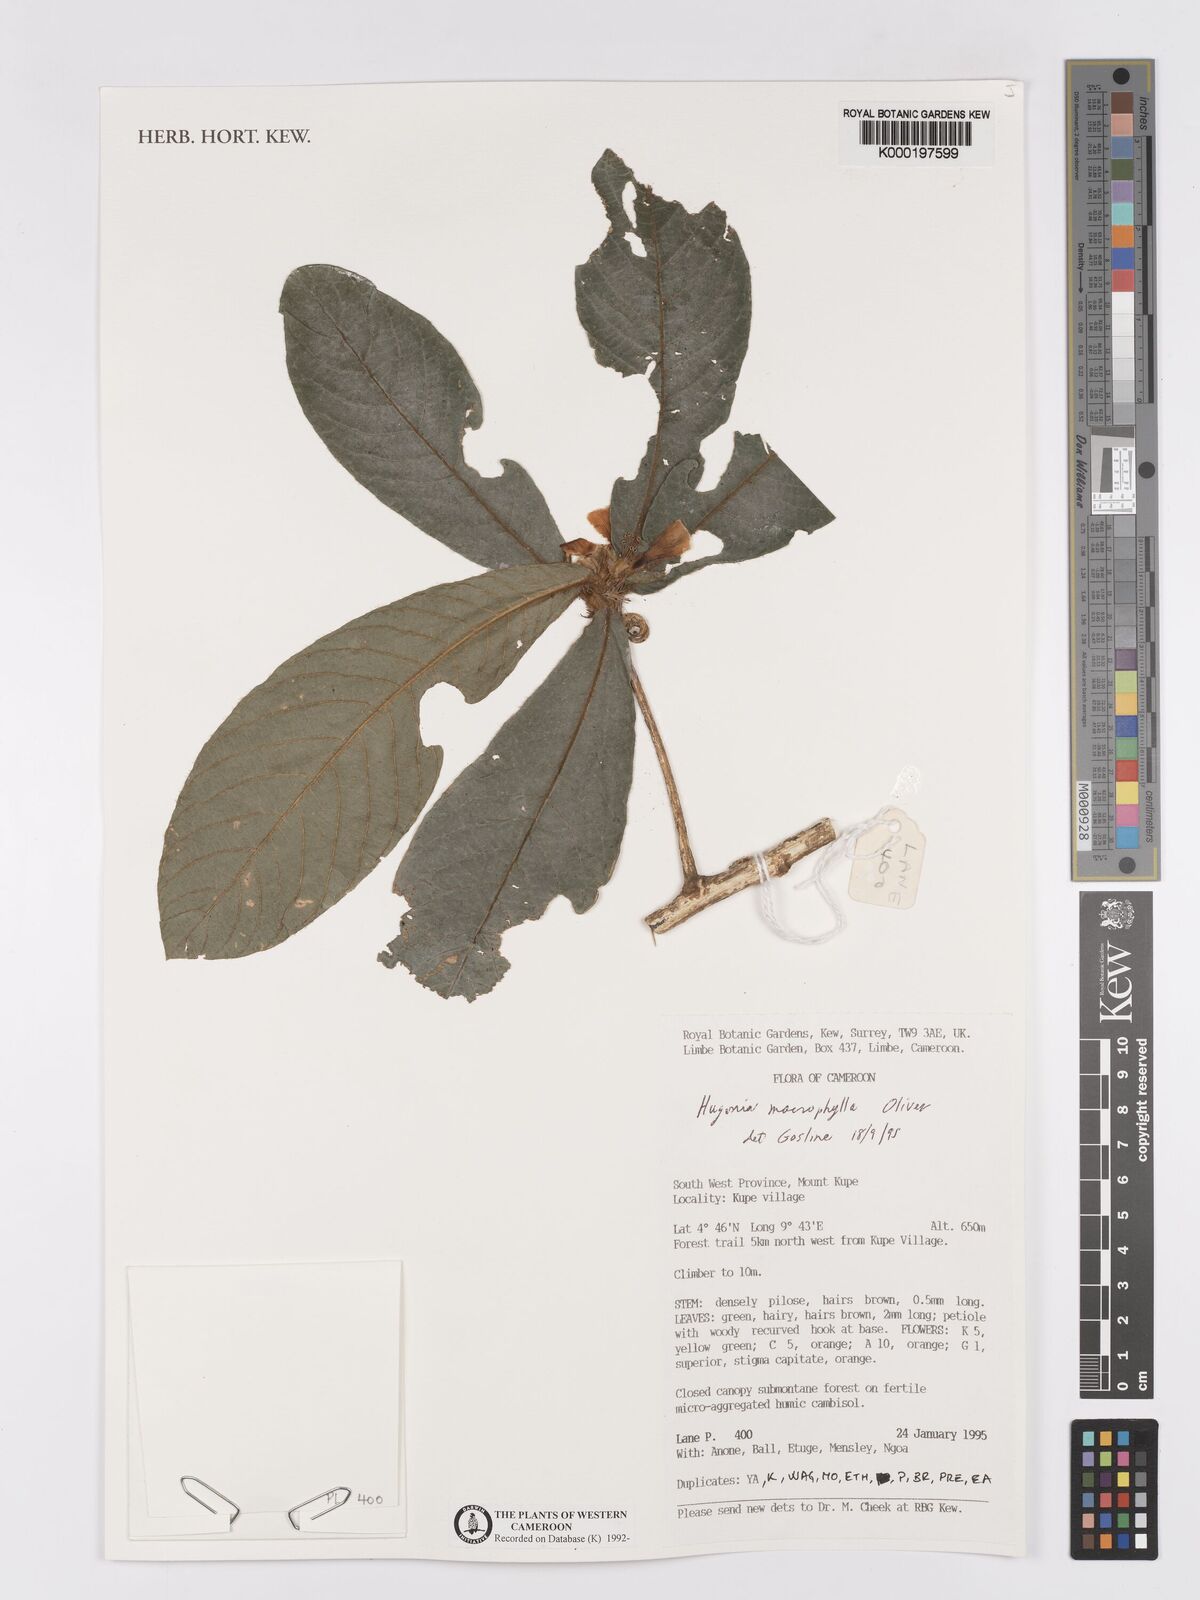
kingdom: Plantae
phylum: Tracheophyta
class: Magnoliopsida
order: Malpighiales
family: Linaceae
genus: Hugonia
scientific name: Hugonia macrophylla
